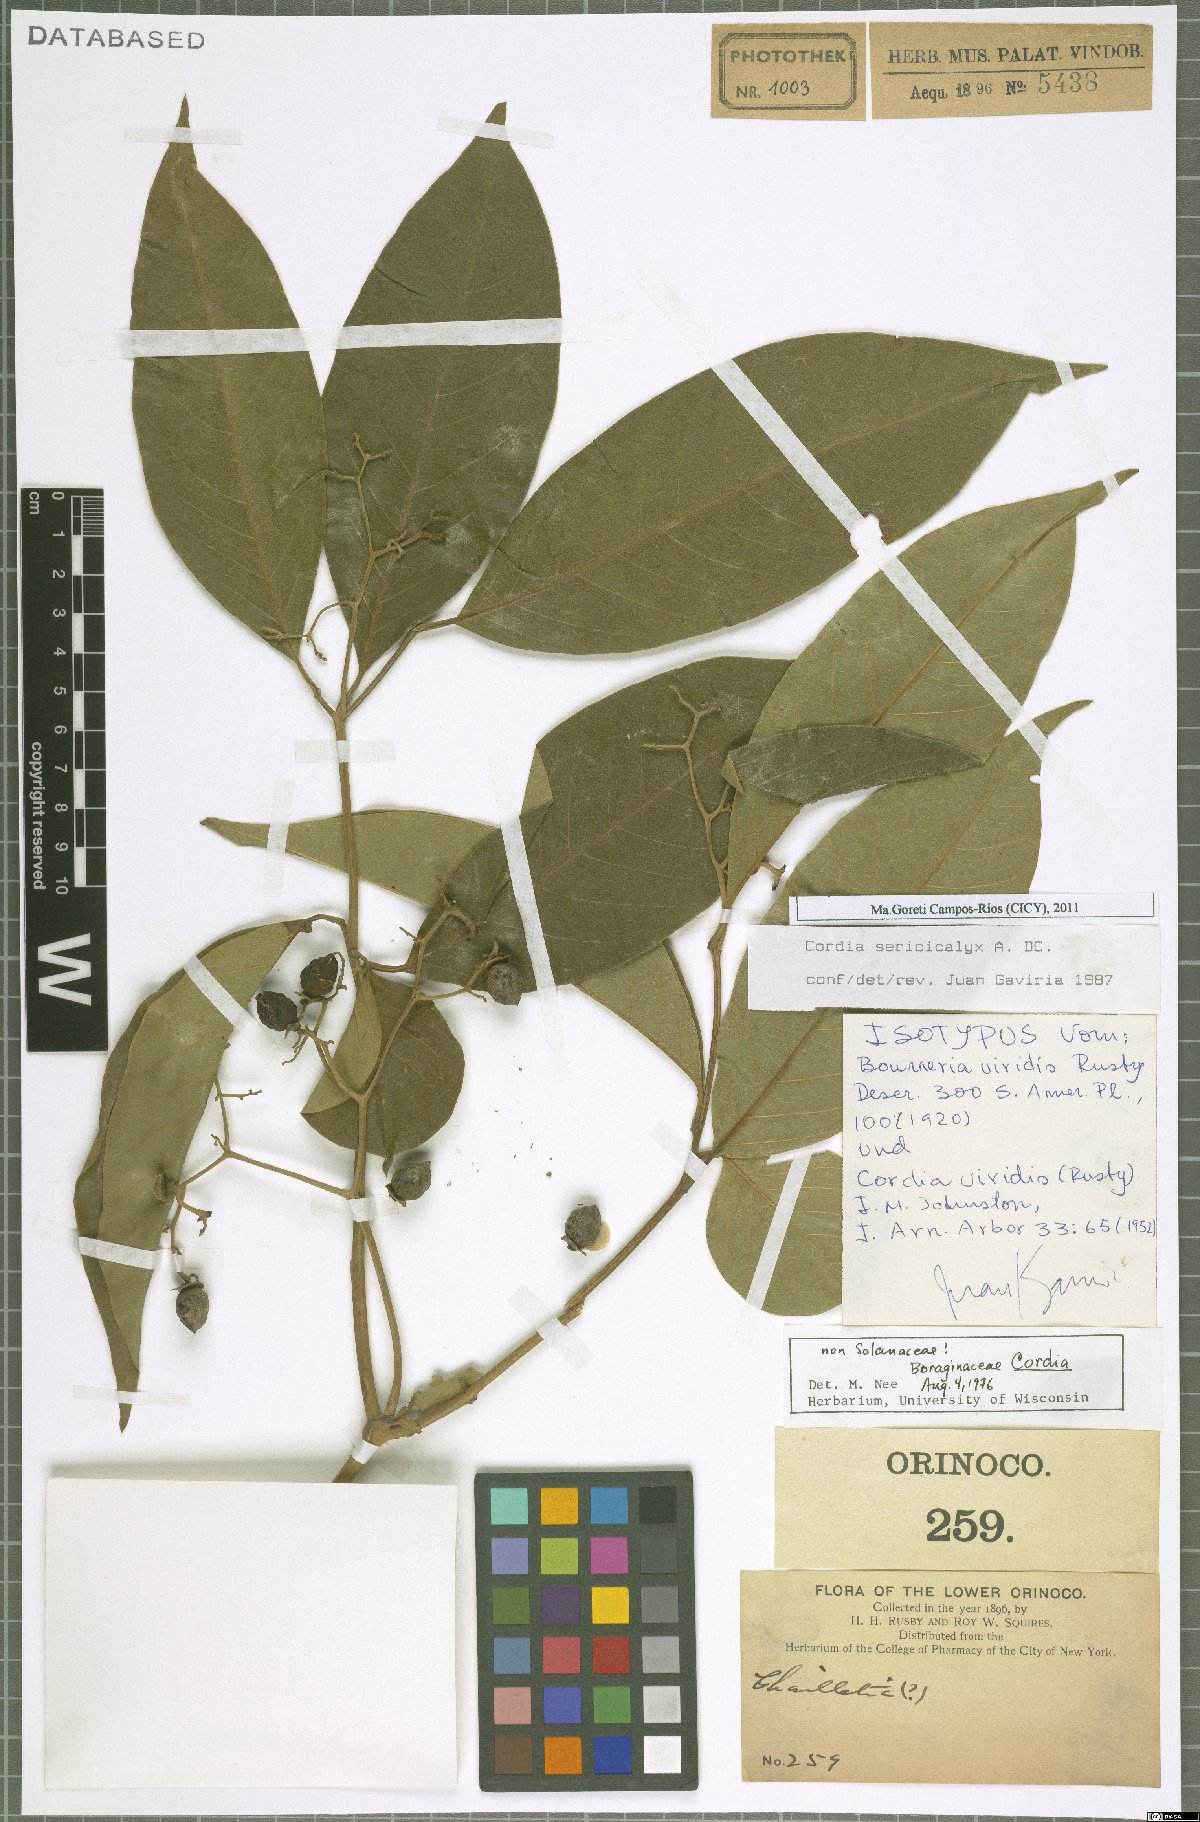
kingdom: Plantae
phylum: Tracheophyta
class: Magnoliopsida
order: Boraginales
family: Cordiaceae
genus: Cordia
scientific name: Cordia sericicalyx
